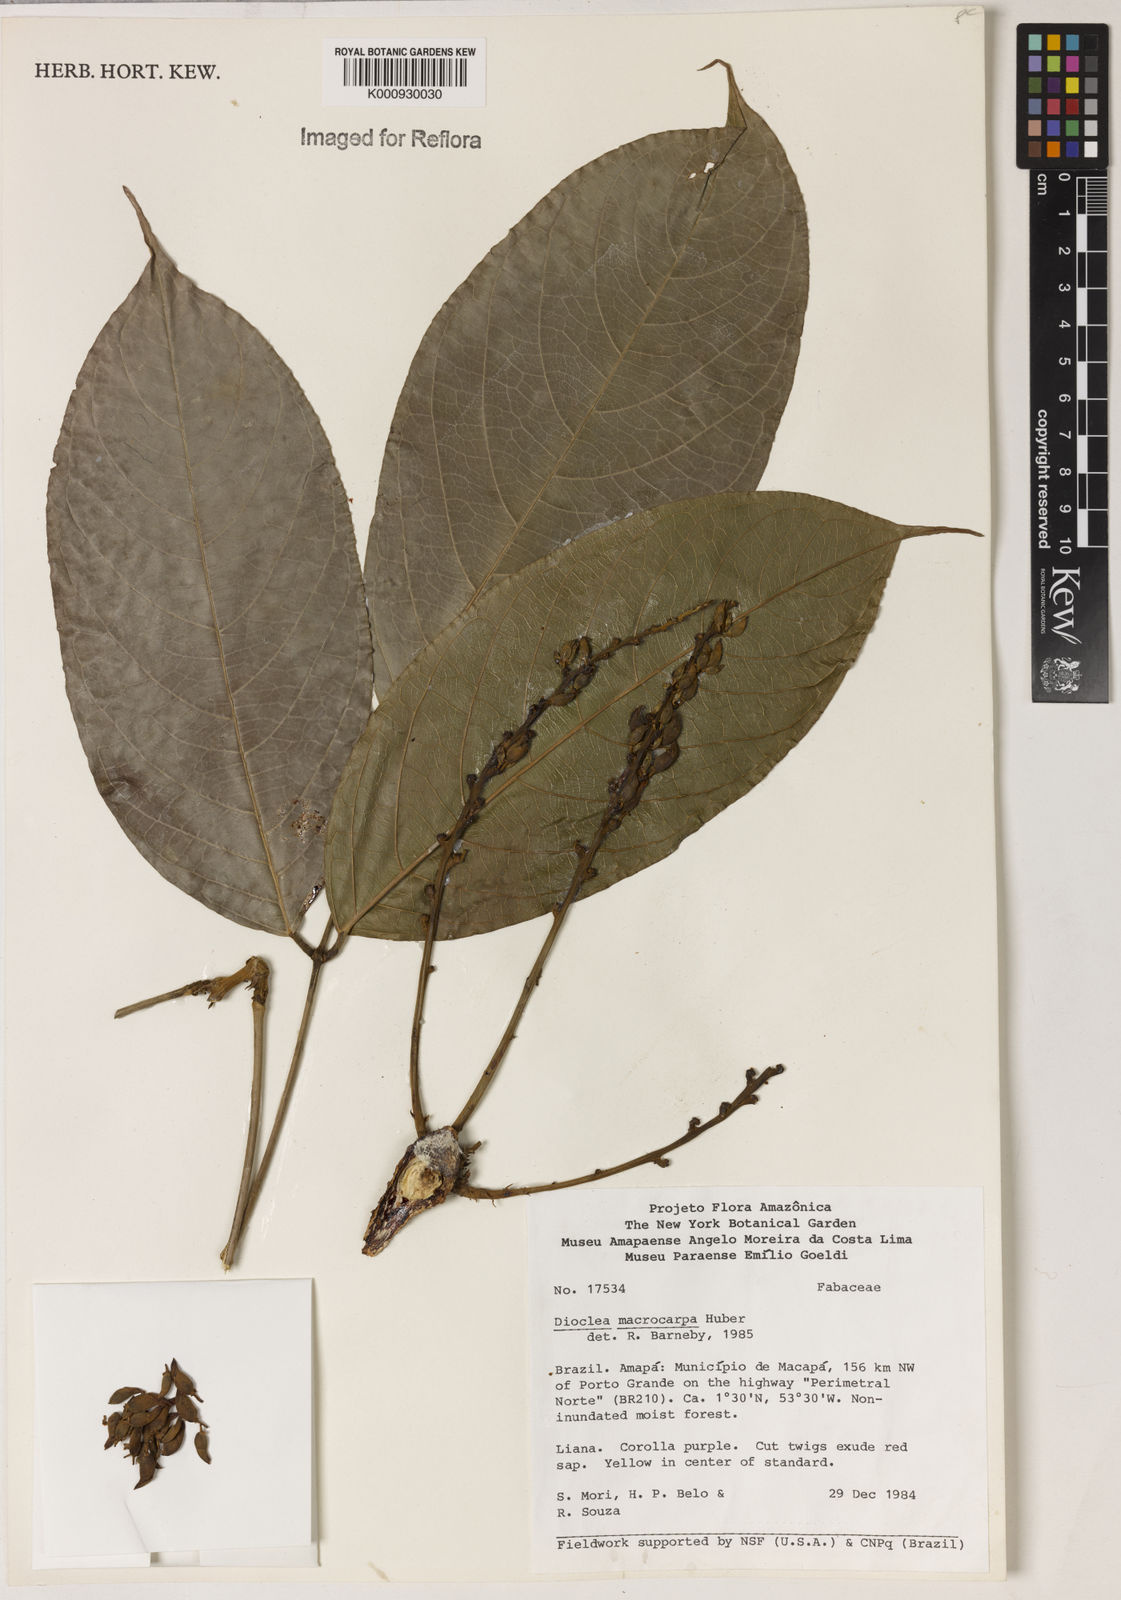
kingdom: Plantae
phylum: Tracheophyta
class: Magnoliopsida
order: Fabales
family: Fabaceae
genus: Macropsychanthus
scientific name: Macropsychanthus macrocarpus
